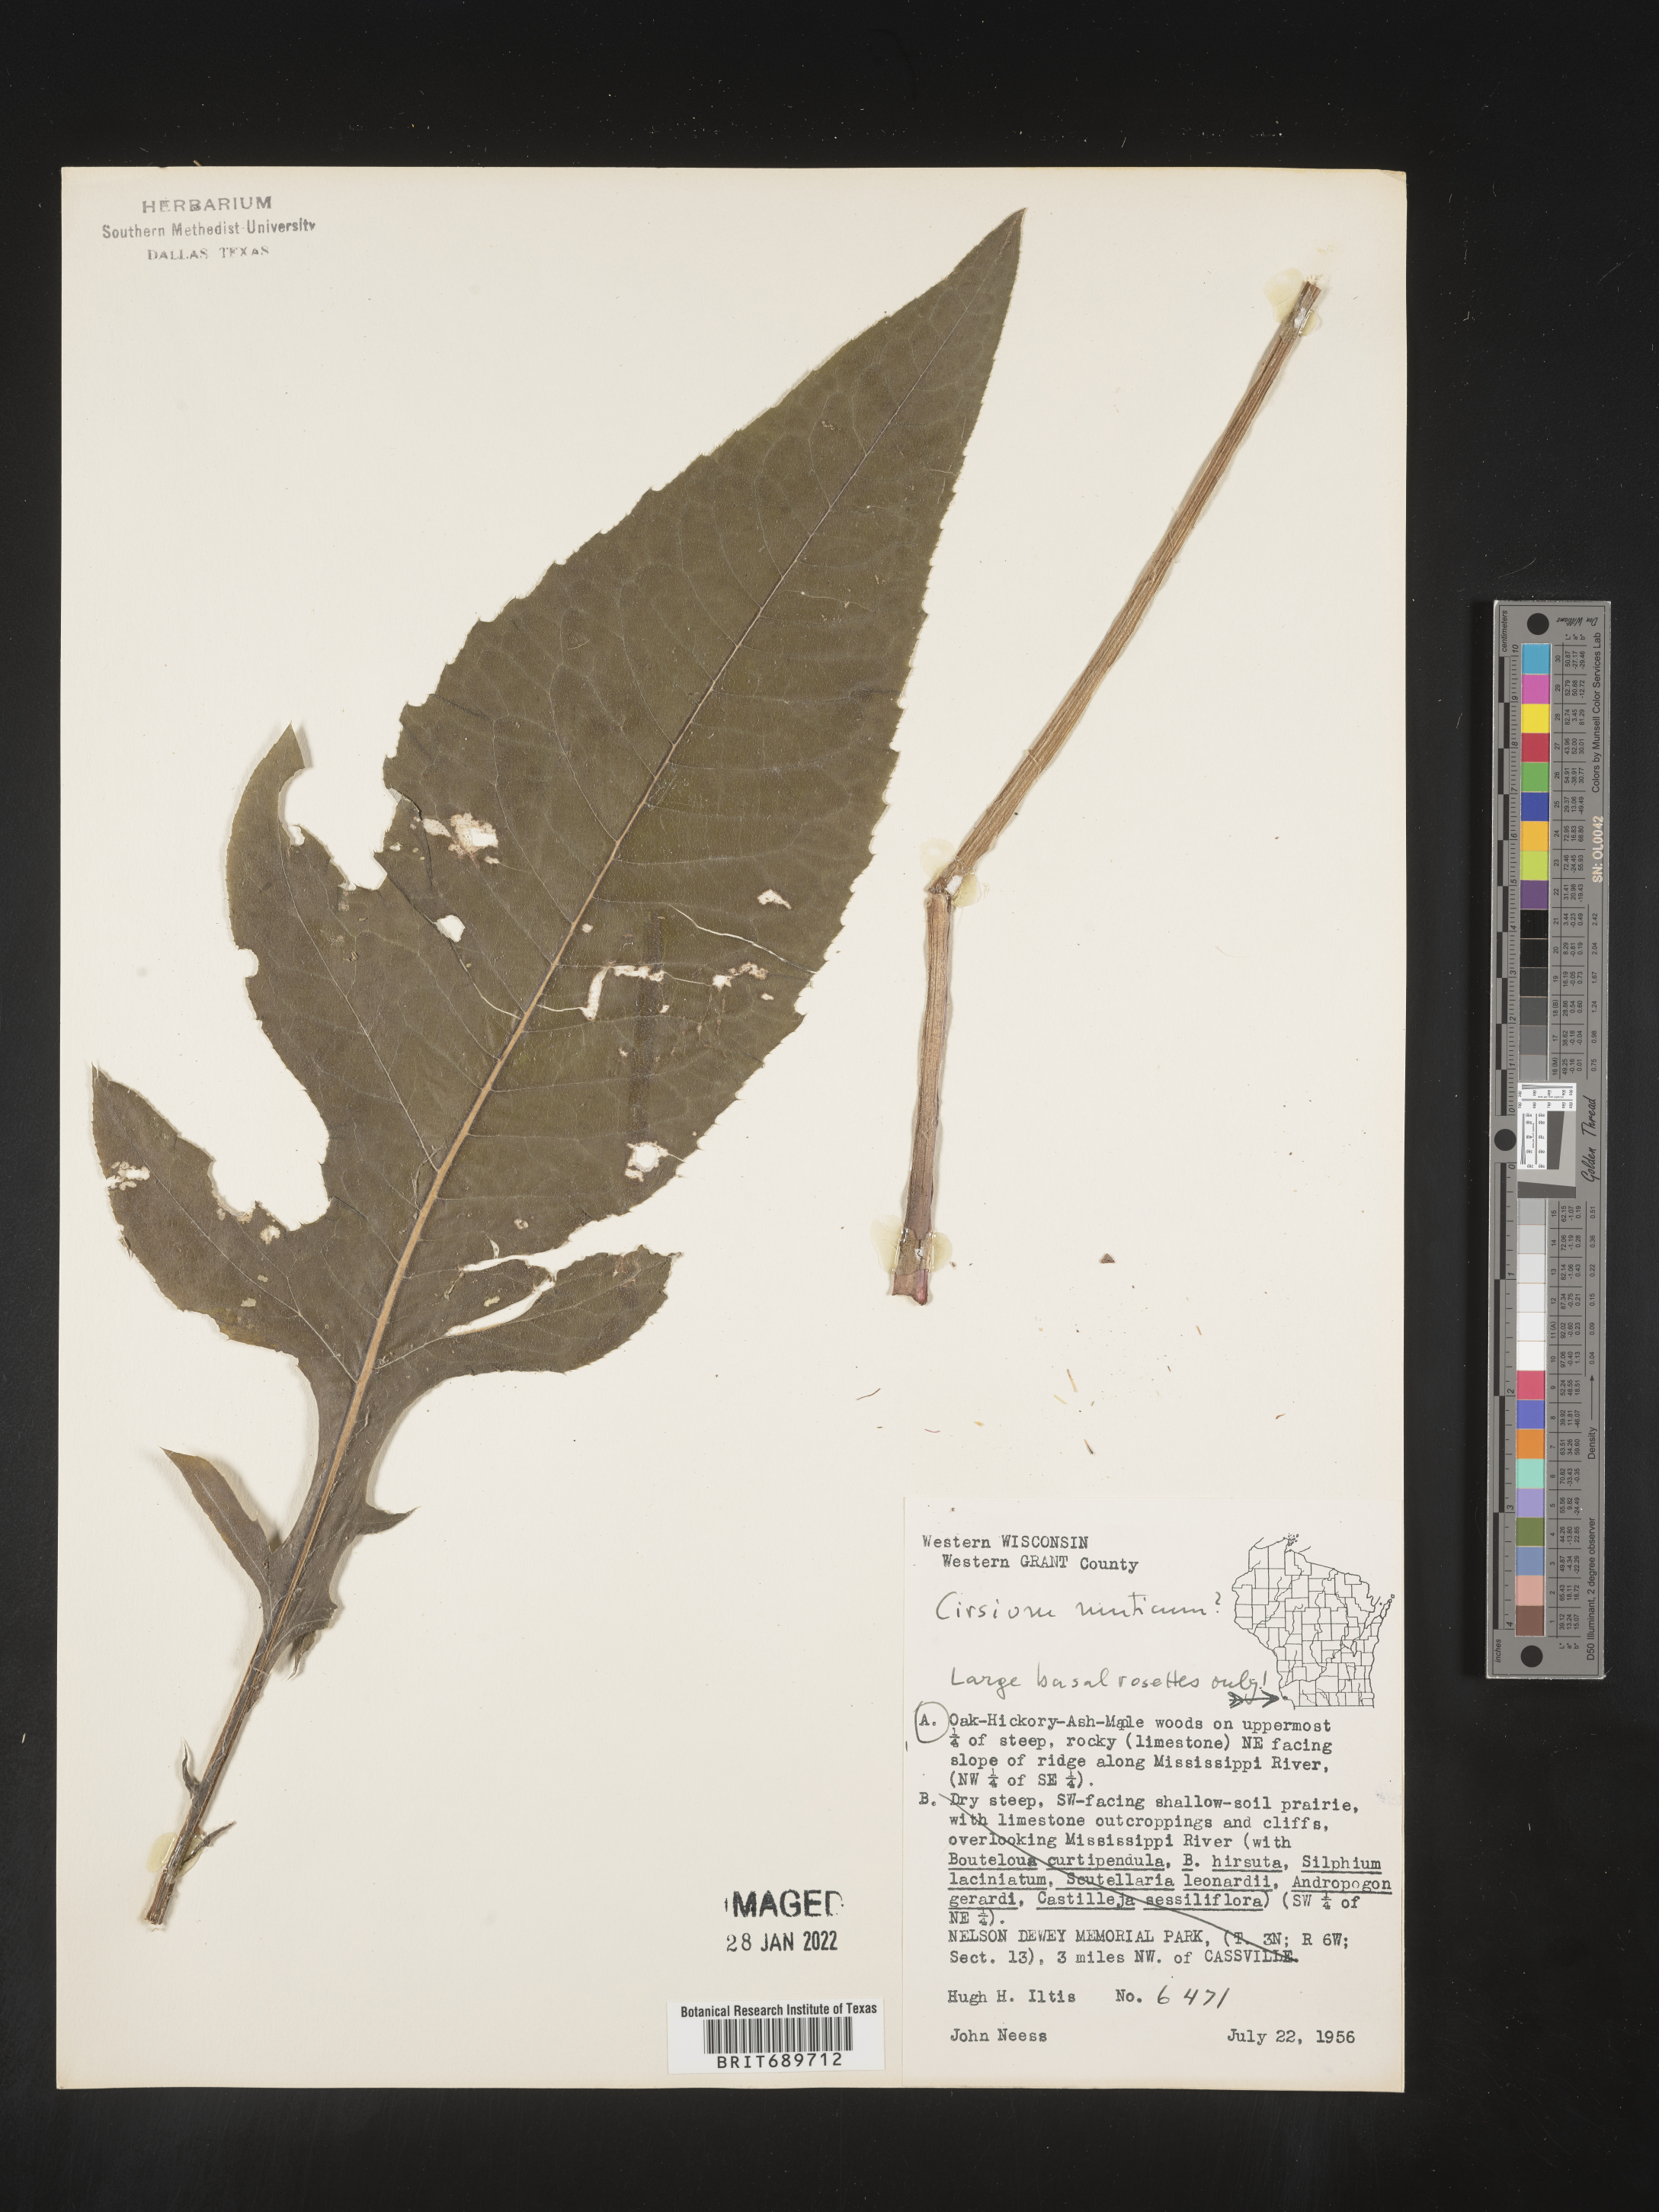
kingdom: Plantae
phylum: Tracheophyta
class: Magnoliopsida
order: Asterales
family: Asteraceae
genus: Cirsium
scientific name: Cirsium muticum
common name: Dunce-nettle
